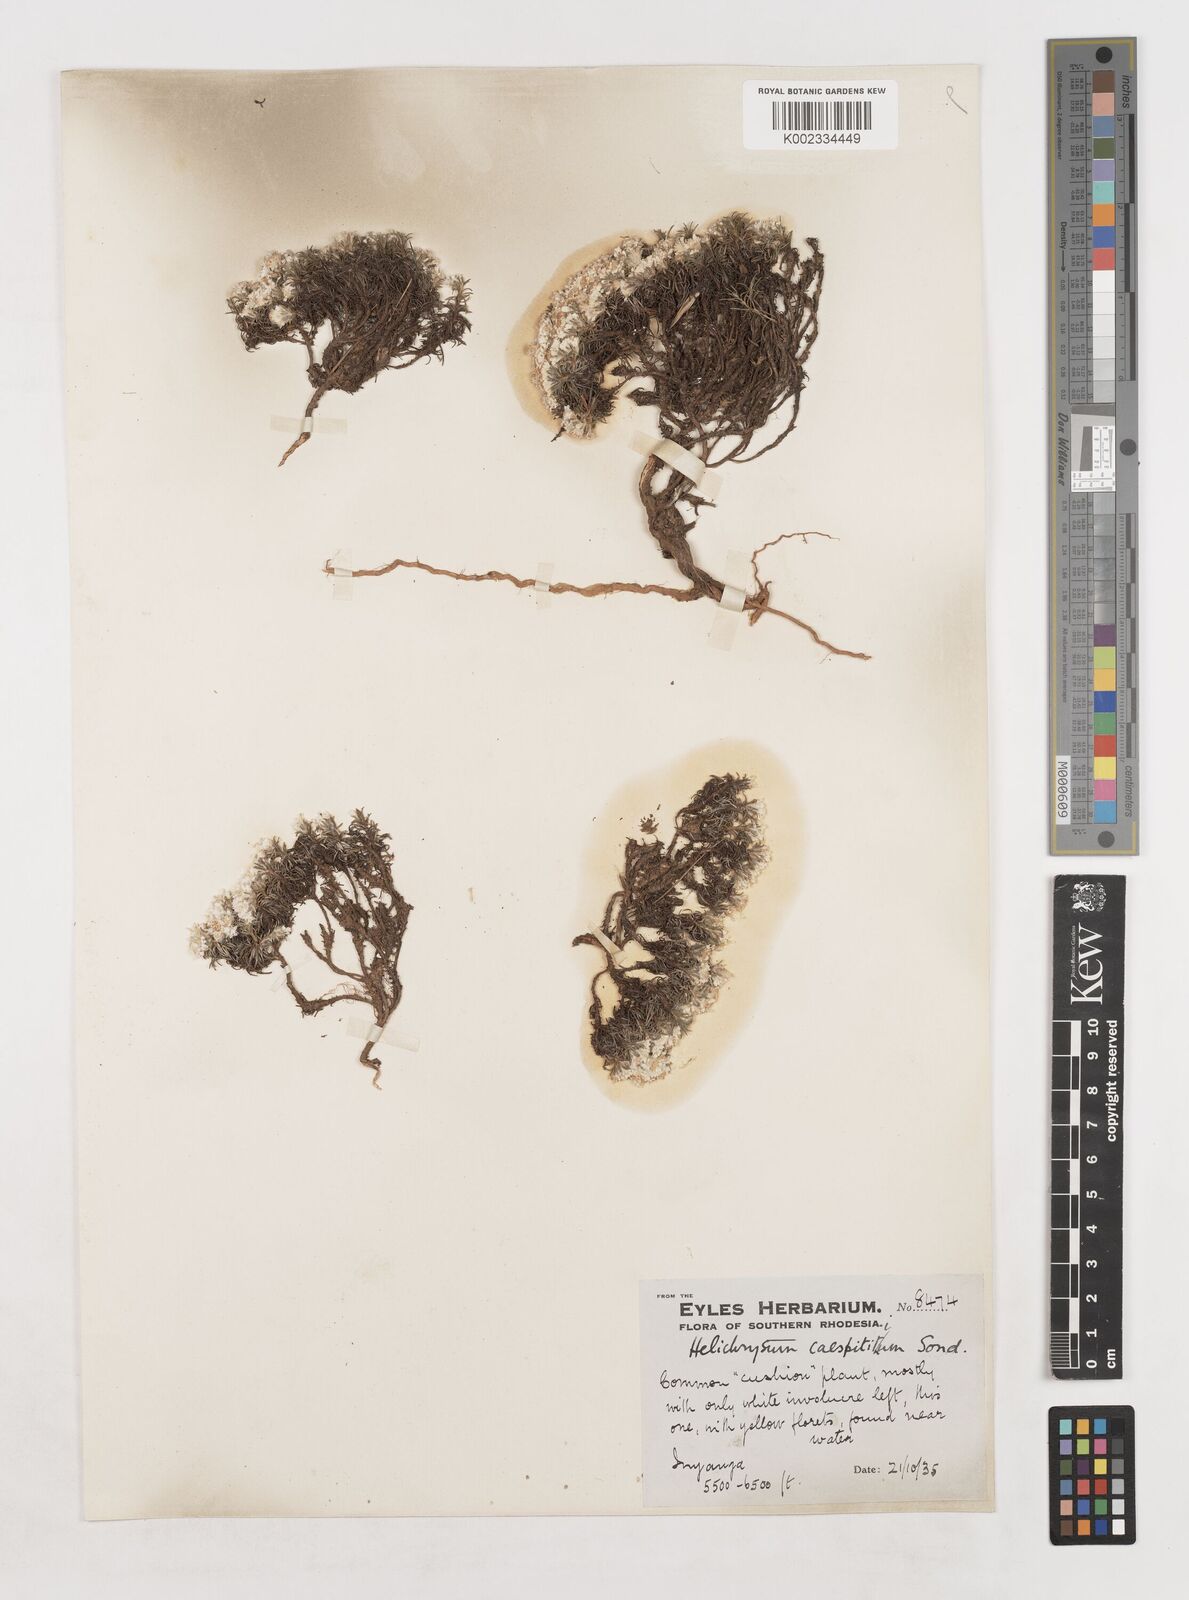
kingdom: Plantae
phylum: Tracheophyta
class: Magnoliopsida
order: Asterales
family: Asteraceae
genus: Helichrysum
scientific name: Helichrysum caespititium
